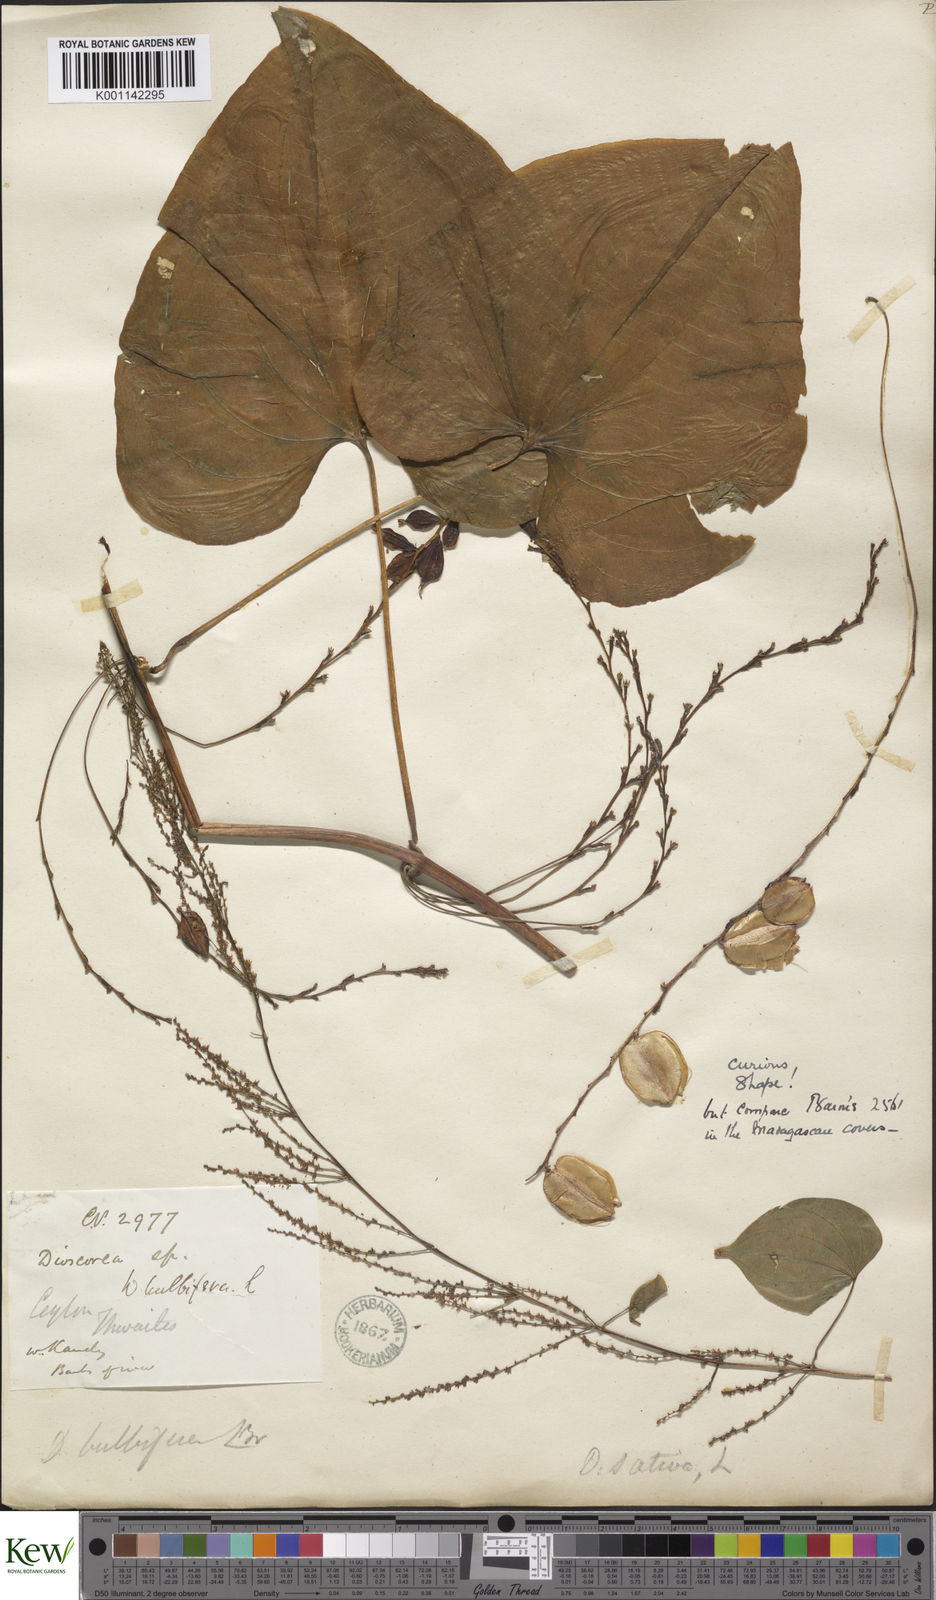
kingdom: Plantae
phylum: Tracheophyta
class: Liliopsida
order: Dioscoreales
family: Dioscoreaceae
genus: Dioscorea
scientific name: Dioscorea bulbifera
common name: Air yam
